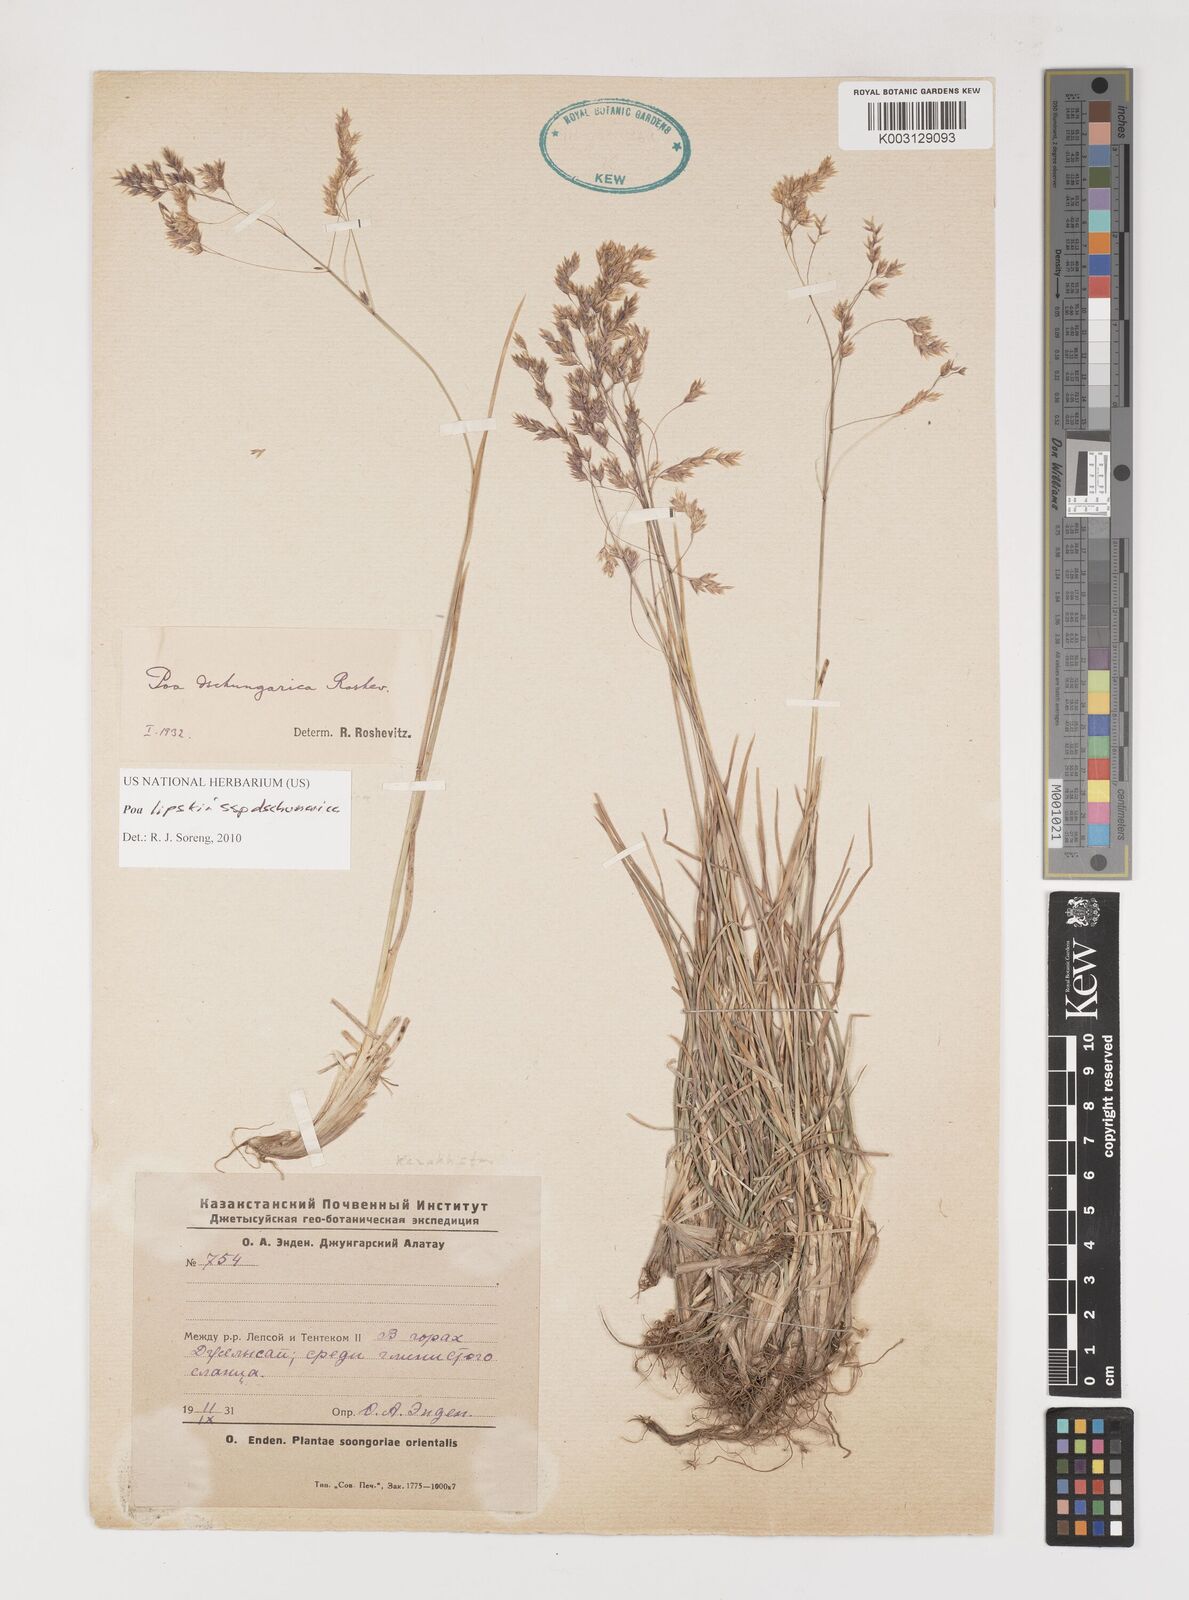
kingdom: Plantae
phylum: Tracheophyta
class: Liliopsida
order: Poales
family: Poaceae
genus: Poa
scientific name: Poa lipskyi
